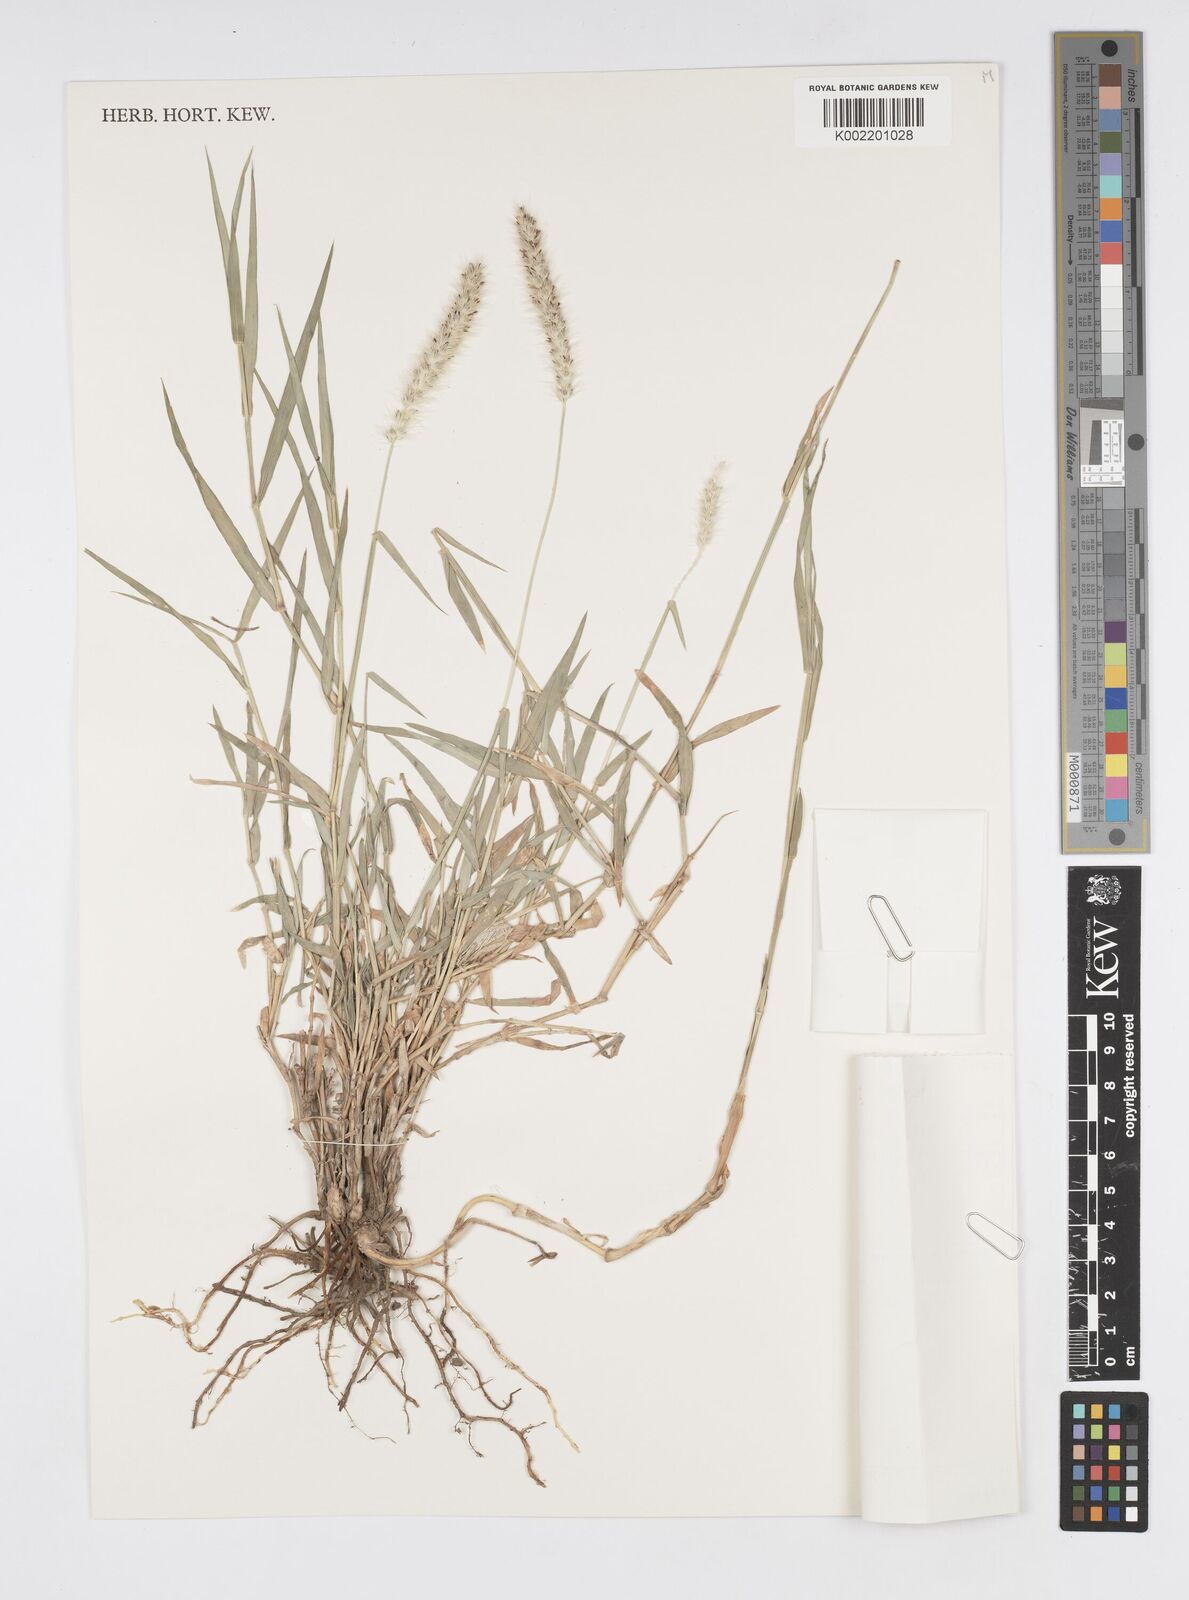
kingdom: Plantae
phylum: Tracheophyta
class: Liliopsida
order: Poales
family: Poaceae
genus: Cenchrus
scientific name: Cenchrus stramineus
